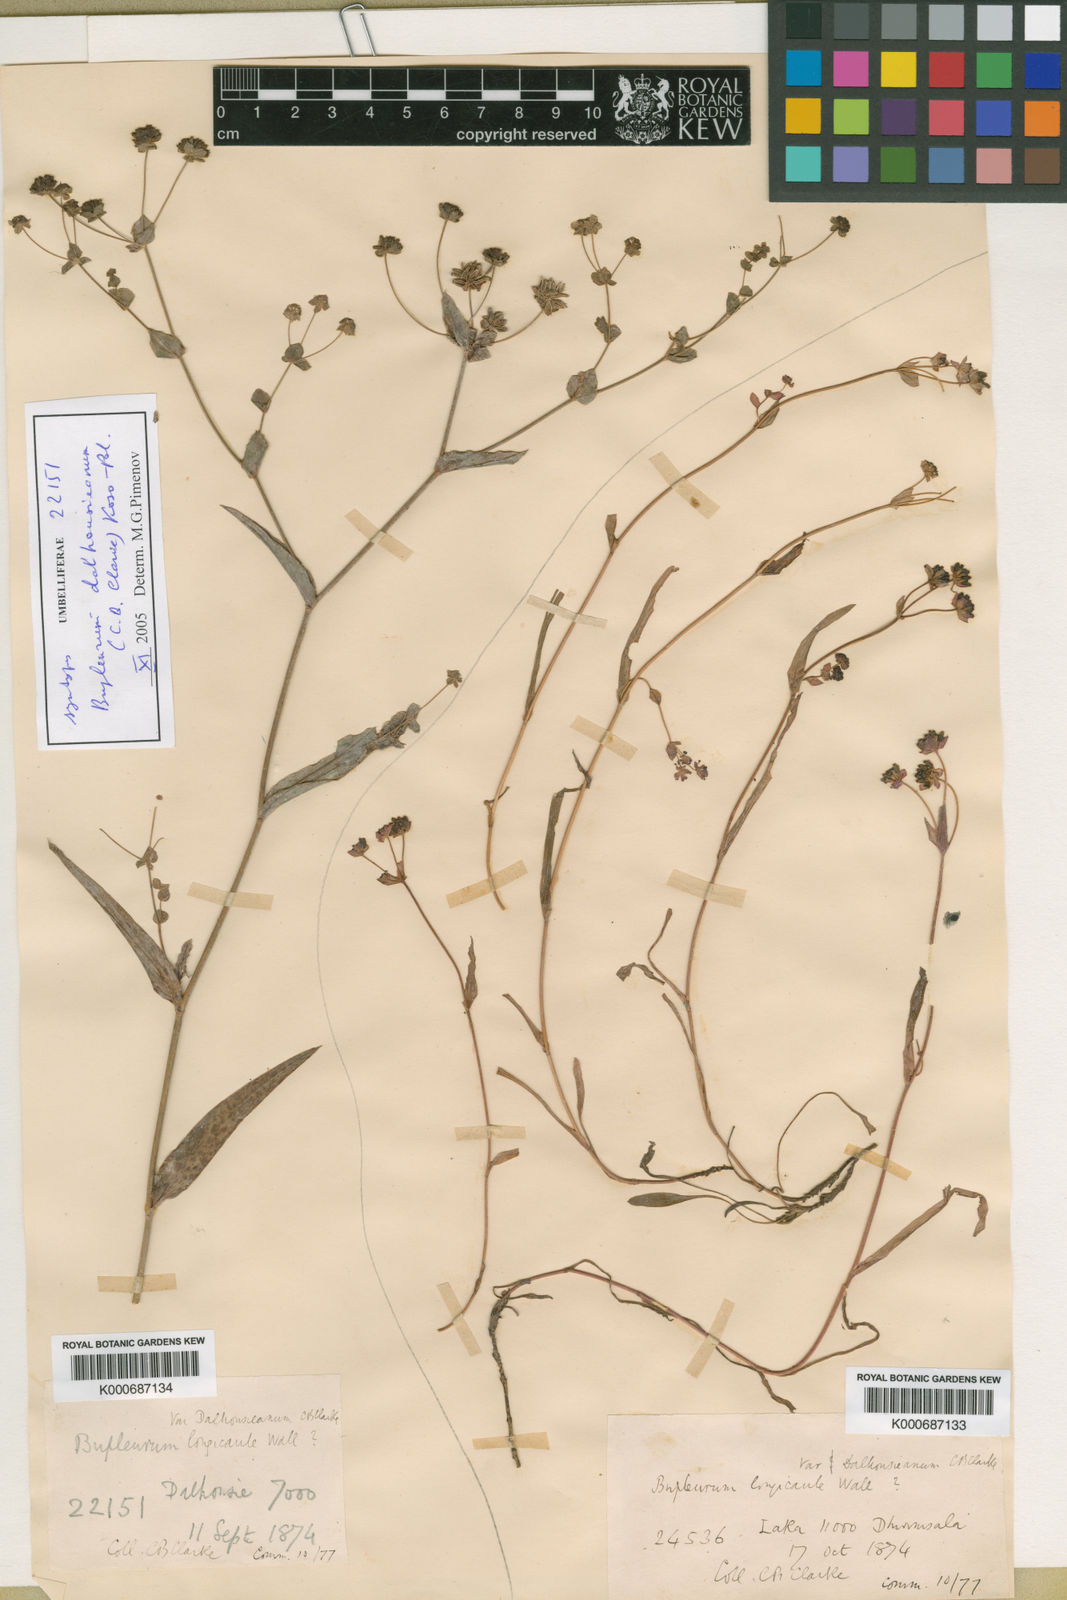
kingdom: Plantae
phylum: Tracheophyta
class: Magnoliopsida
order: Apiales
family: Apiaceae
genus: Bupleurum
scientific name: Bupleurum dalhousieanum
